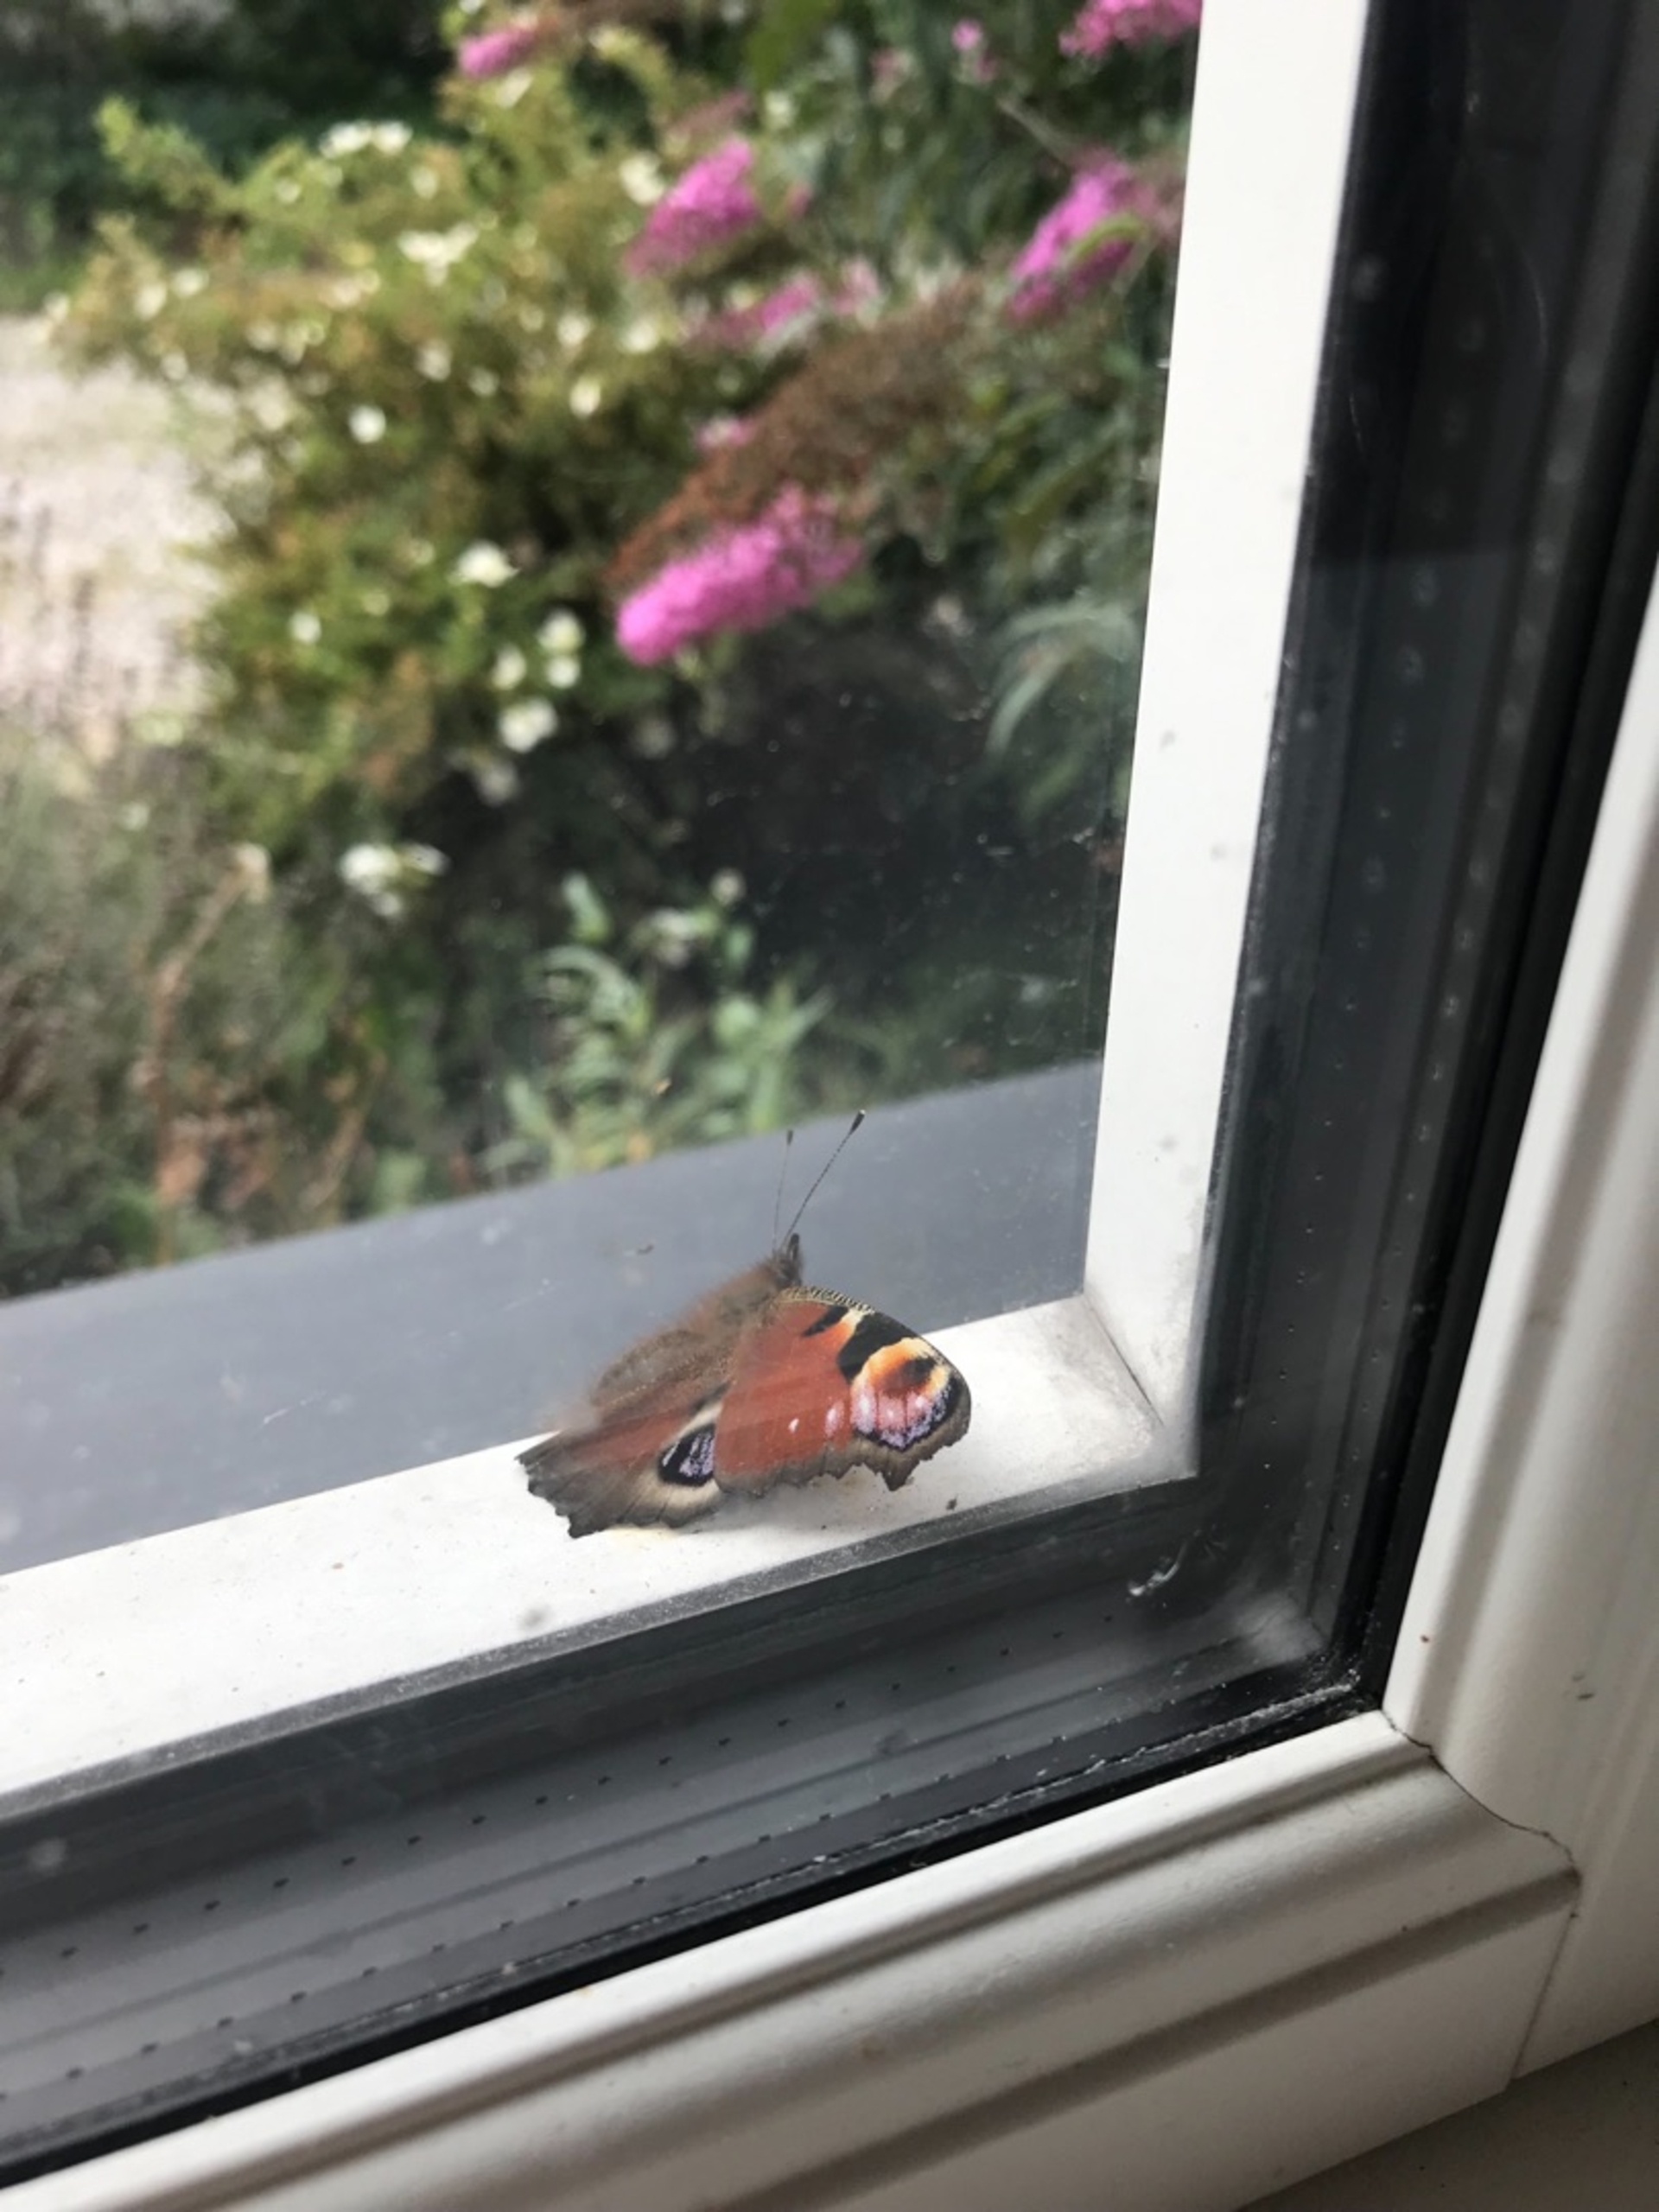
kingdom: Animalia
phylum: Arthropoda
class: Insecta
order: Lepidoptera
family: Nymphalidae
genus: Aglais
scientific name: Aglais io
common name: Dagpåfugleøje
